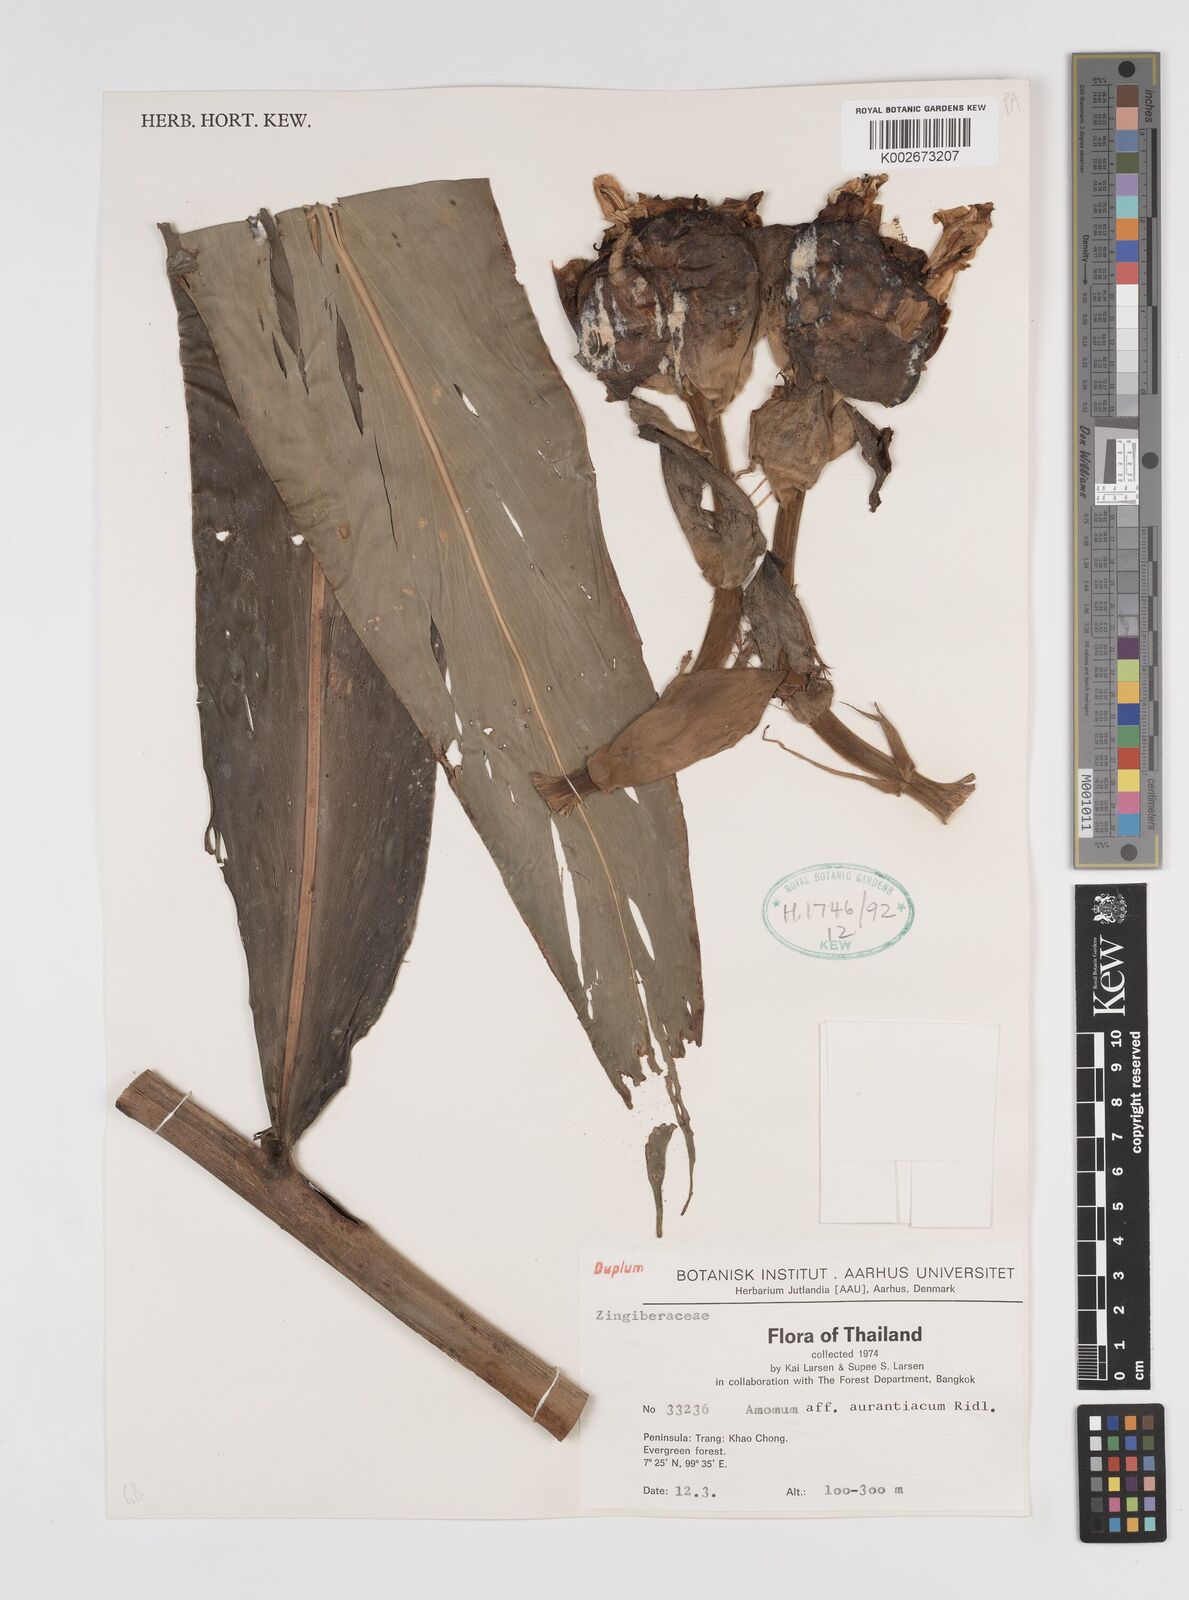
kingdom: Plantae
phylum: Tracheophyta
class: Liliopsida
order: Zingiberales
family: Zingiberaceae
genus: Meistera
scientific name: Meistera aculeata
